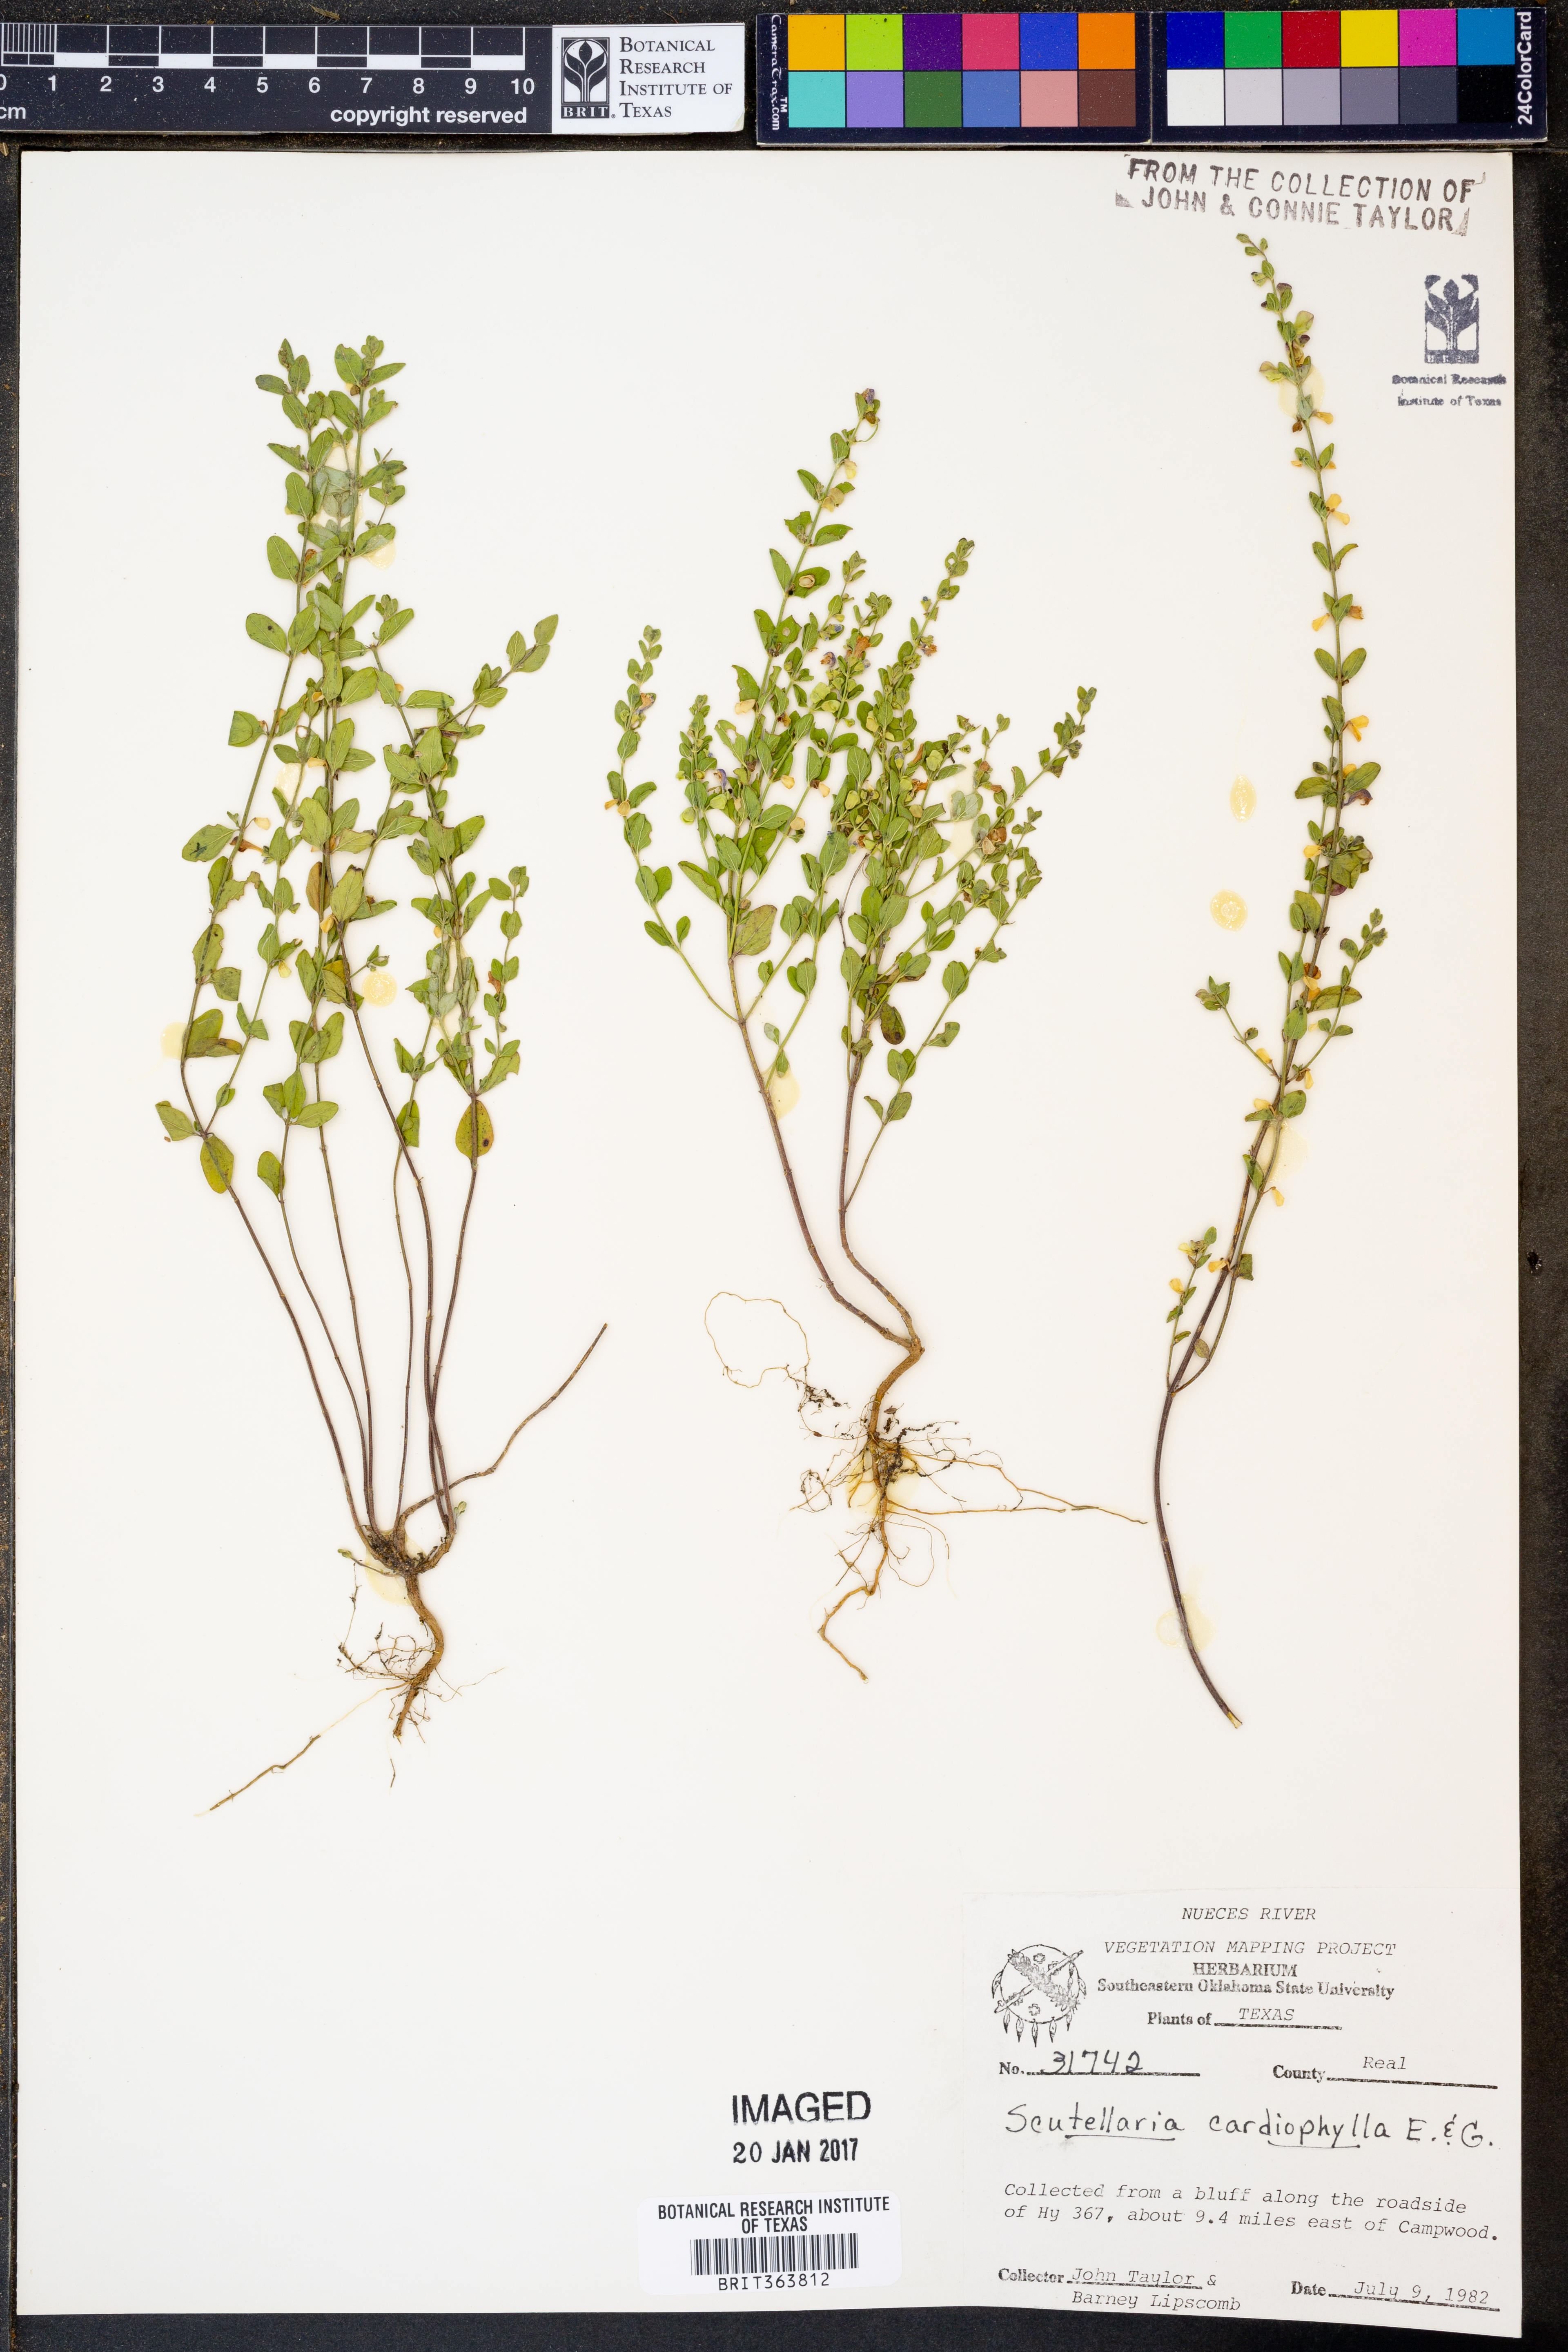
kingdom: Plantae
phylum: Tracheophyta
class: Magnoliopsida
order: Lamiales
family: Lamiaceae
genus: Scutellaria
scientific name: Scutellaria cardiophylla
